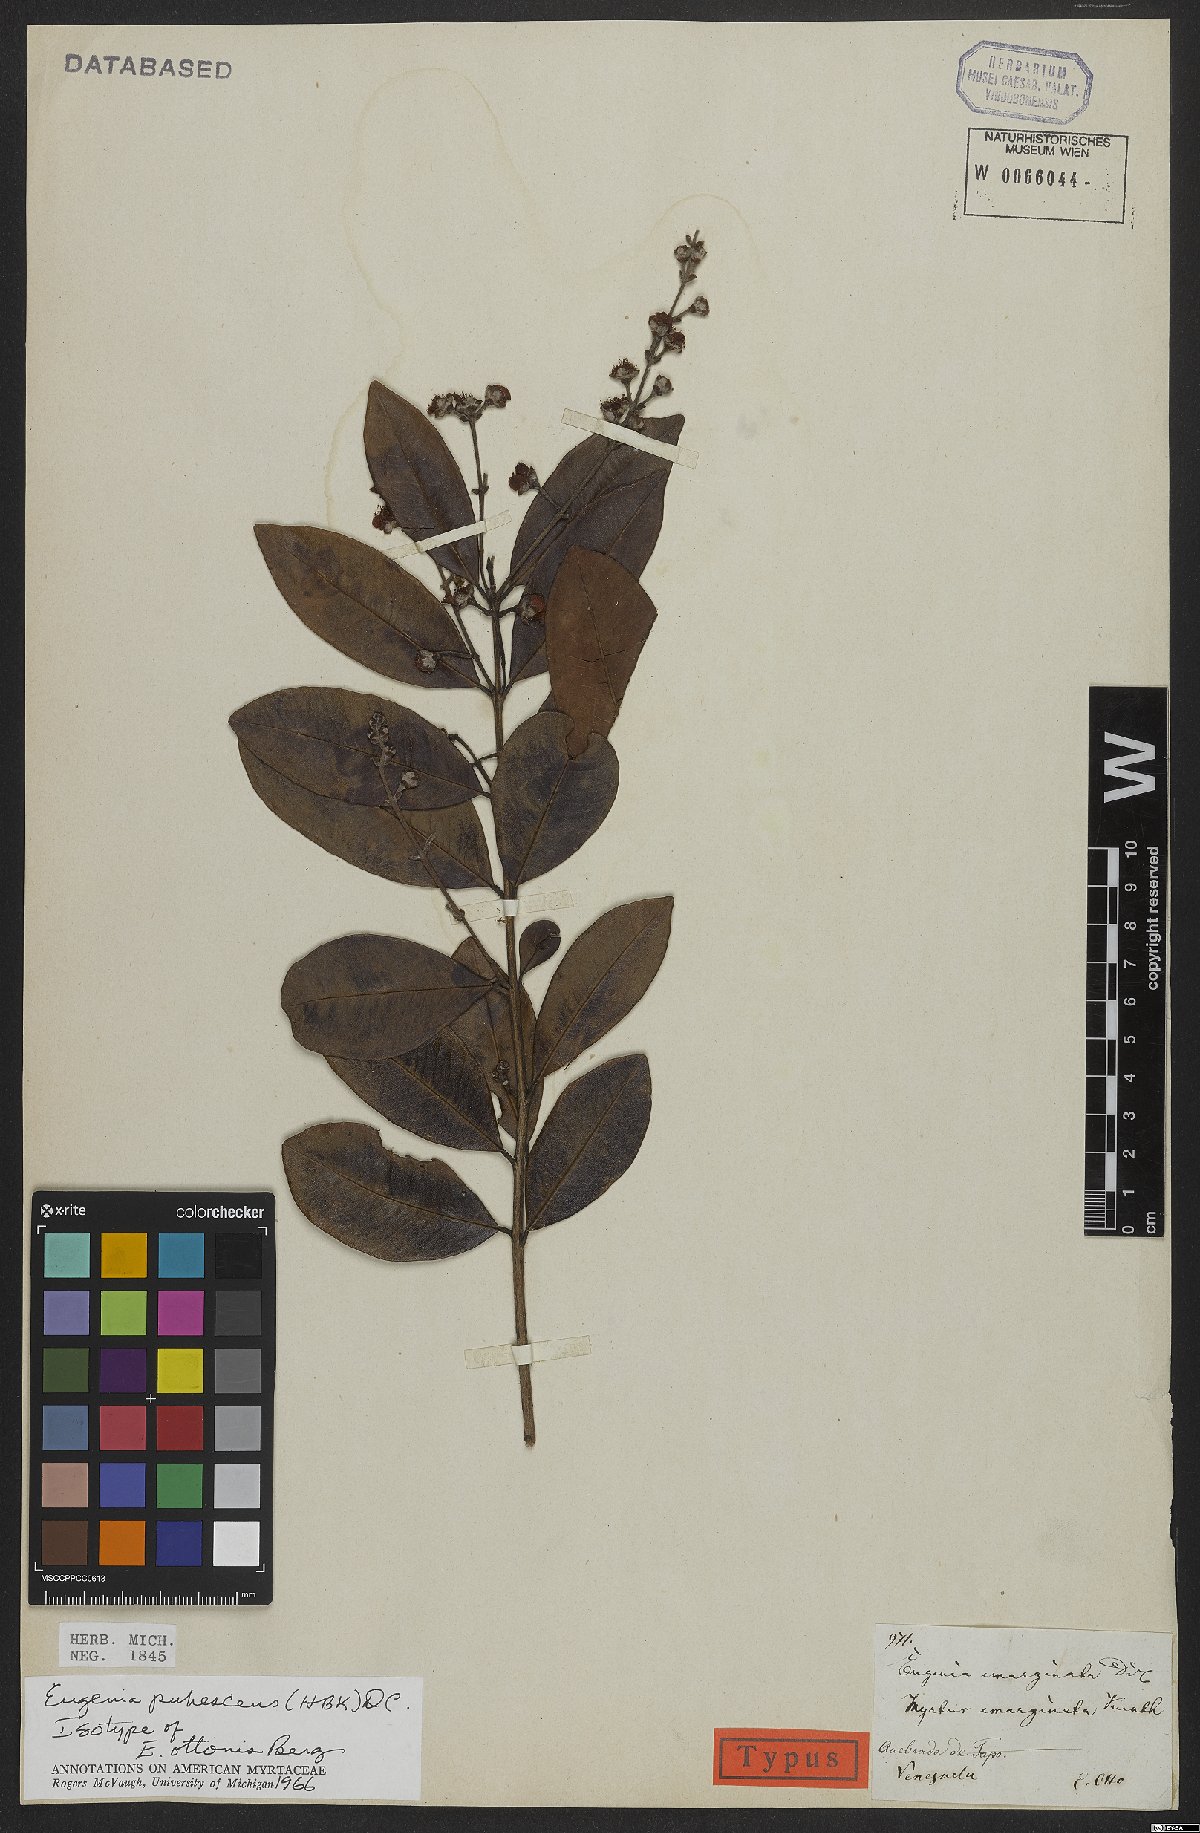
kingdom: Plantae
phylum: Tracheophyta
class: Magnoliopsida
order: Myrtales
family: Myrtaceae
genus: Eugenia
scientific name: Eugenia pubescens
